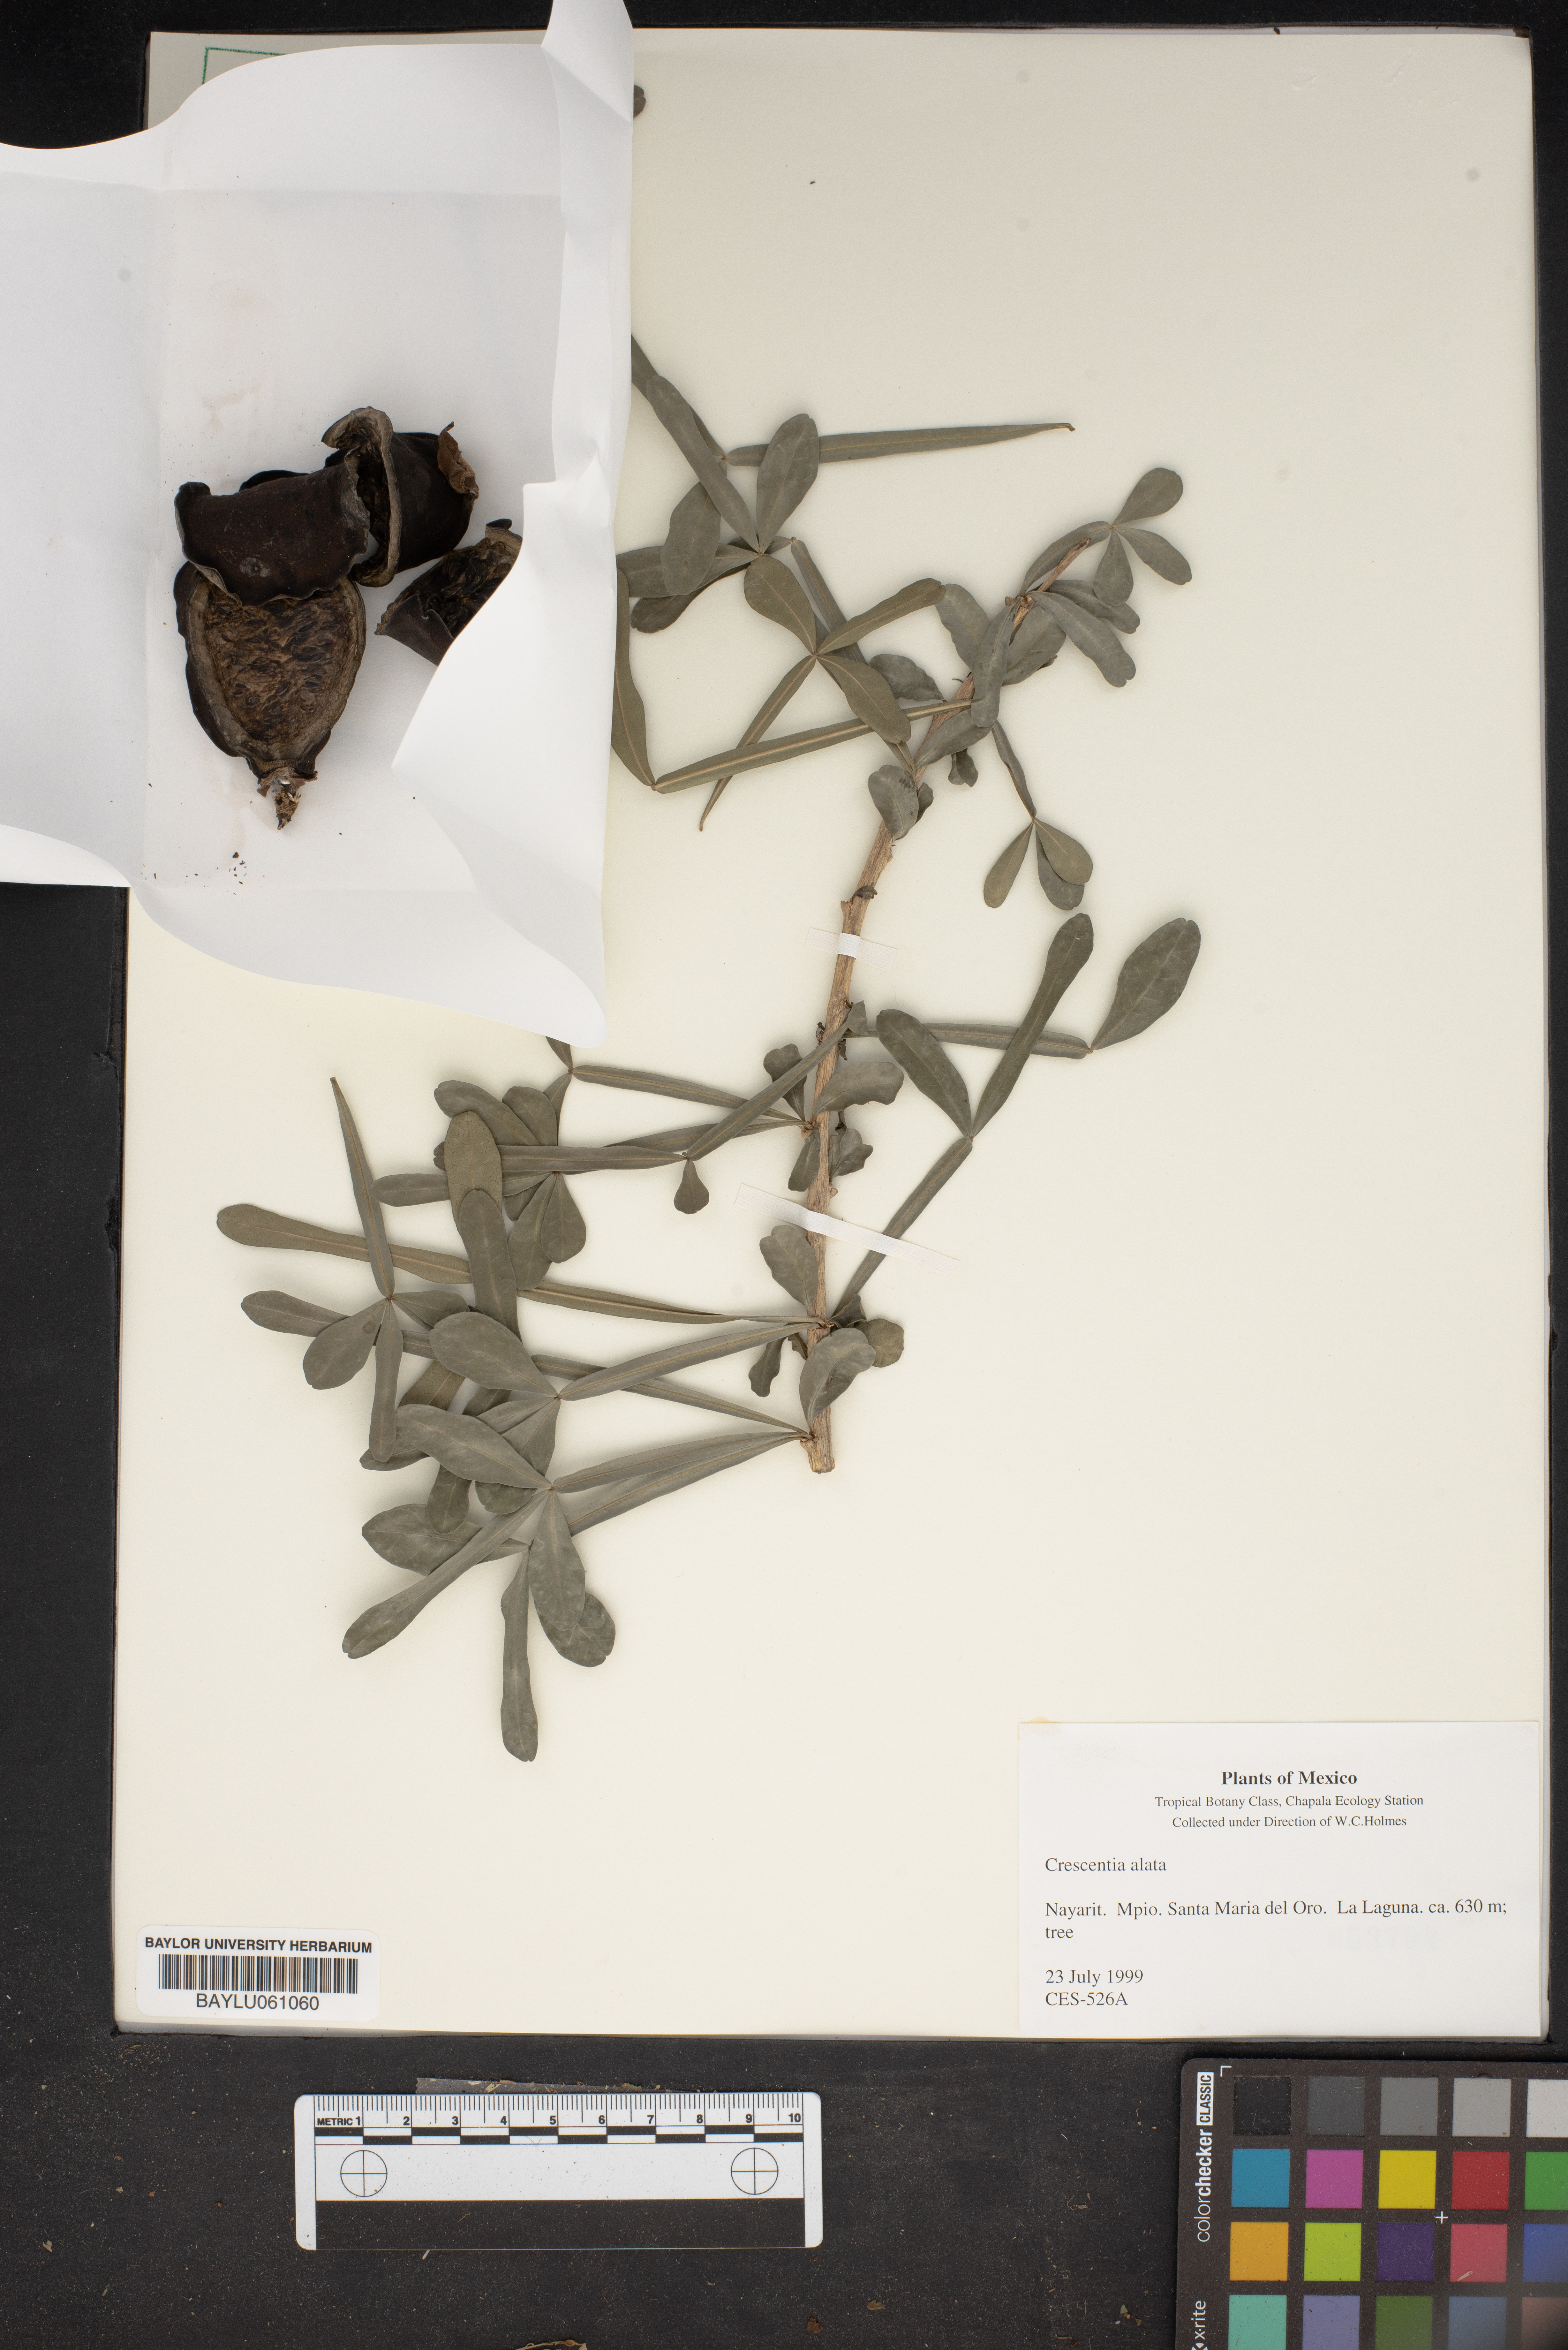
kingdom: Plantae
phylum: Tracheophyta
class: Magnoliopsida
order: Lamiales
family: Bignoniaceae
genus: Crescentia
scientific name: Crescentia alata
